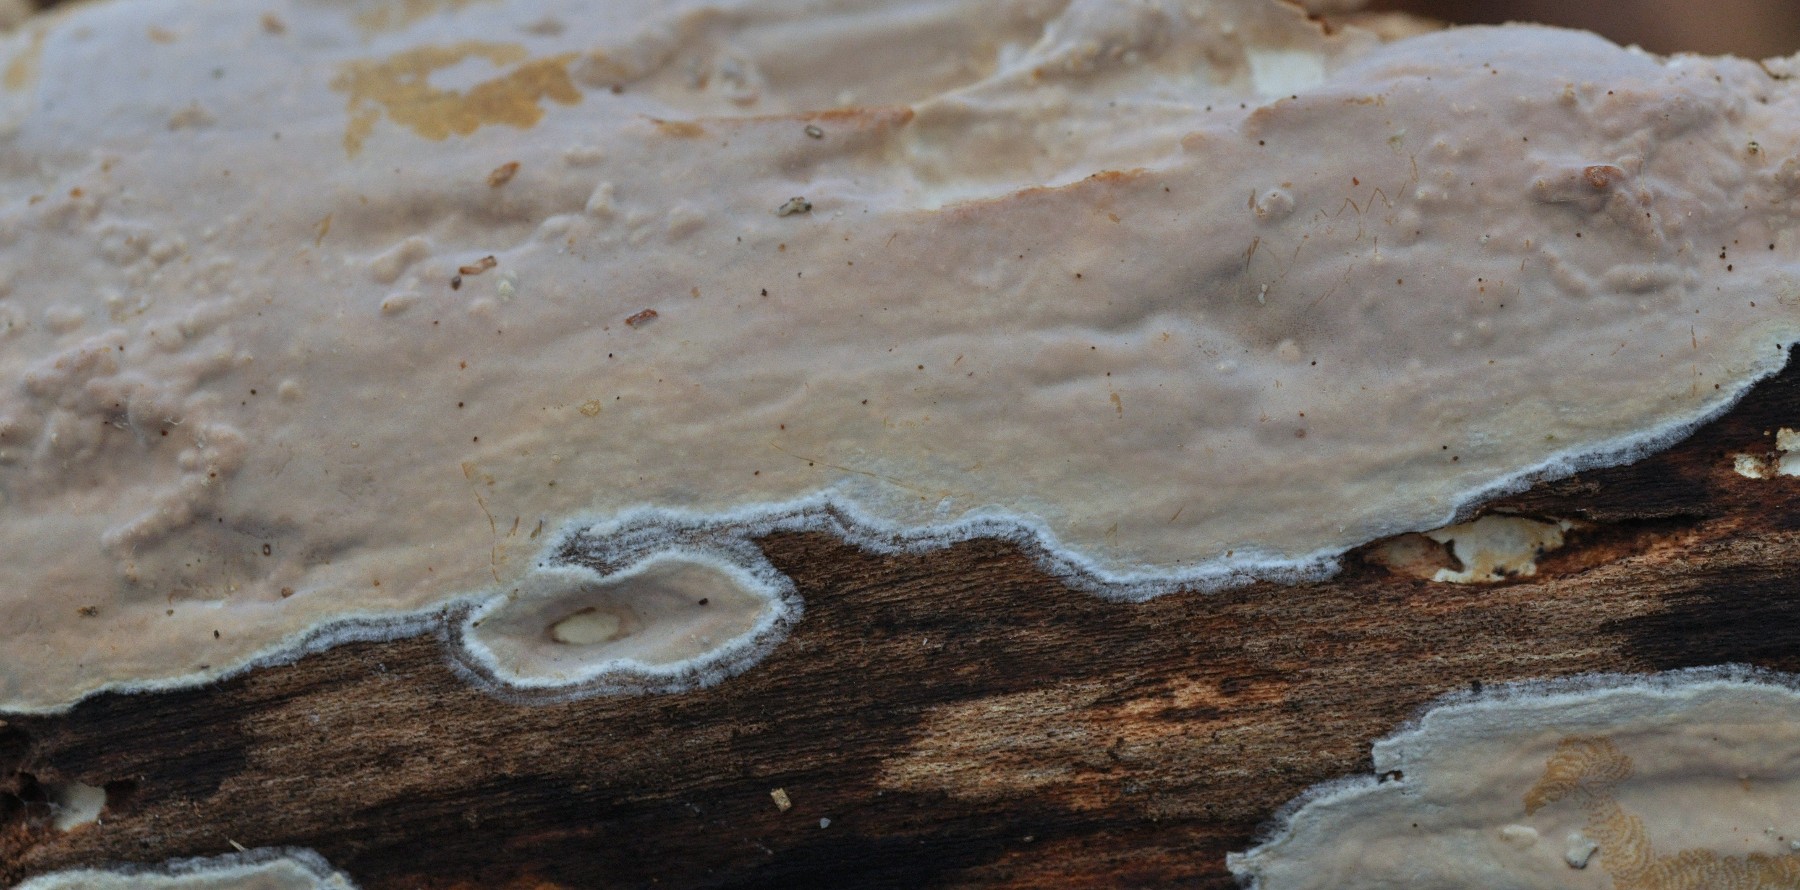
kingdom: Fungi
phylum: Basidiomycota
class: Agaricomycetes
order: Russulales
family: Peniophoraceae
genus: Scytinostroma
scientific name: Scytinostroma hemidichophyticum
